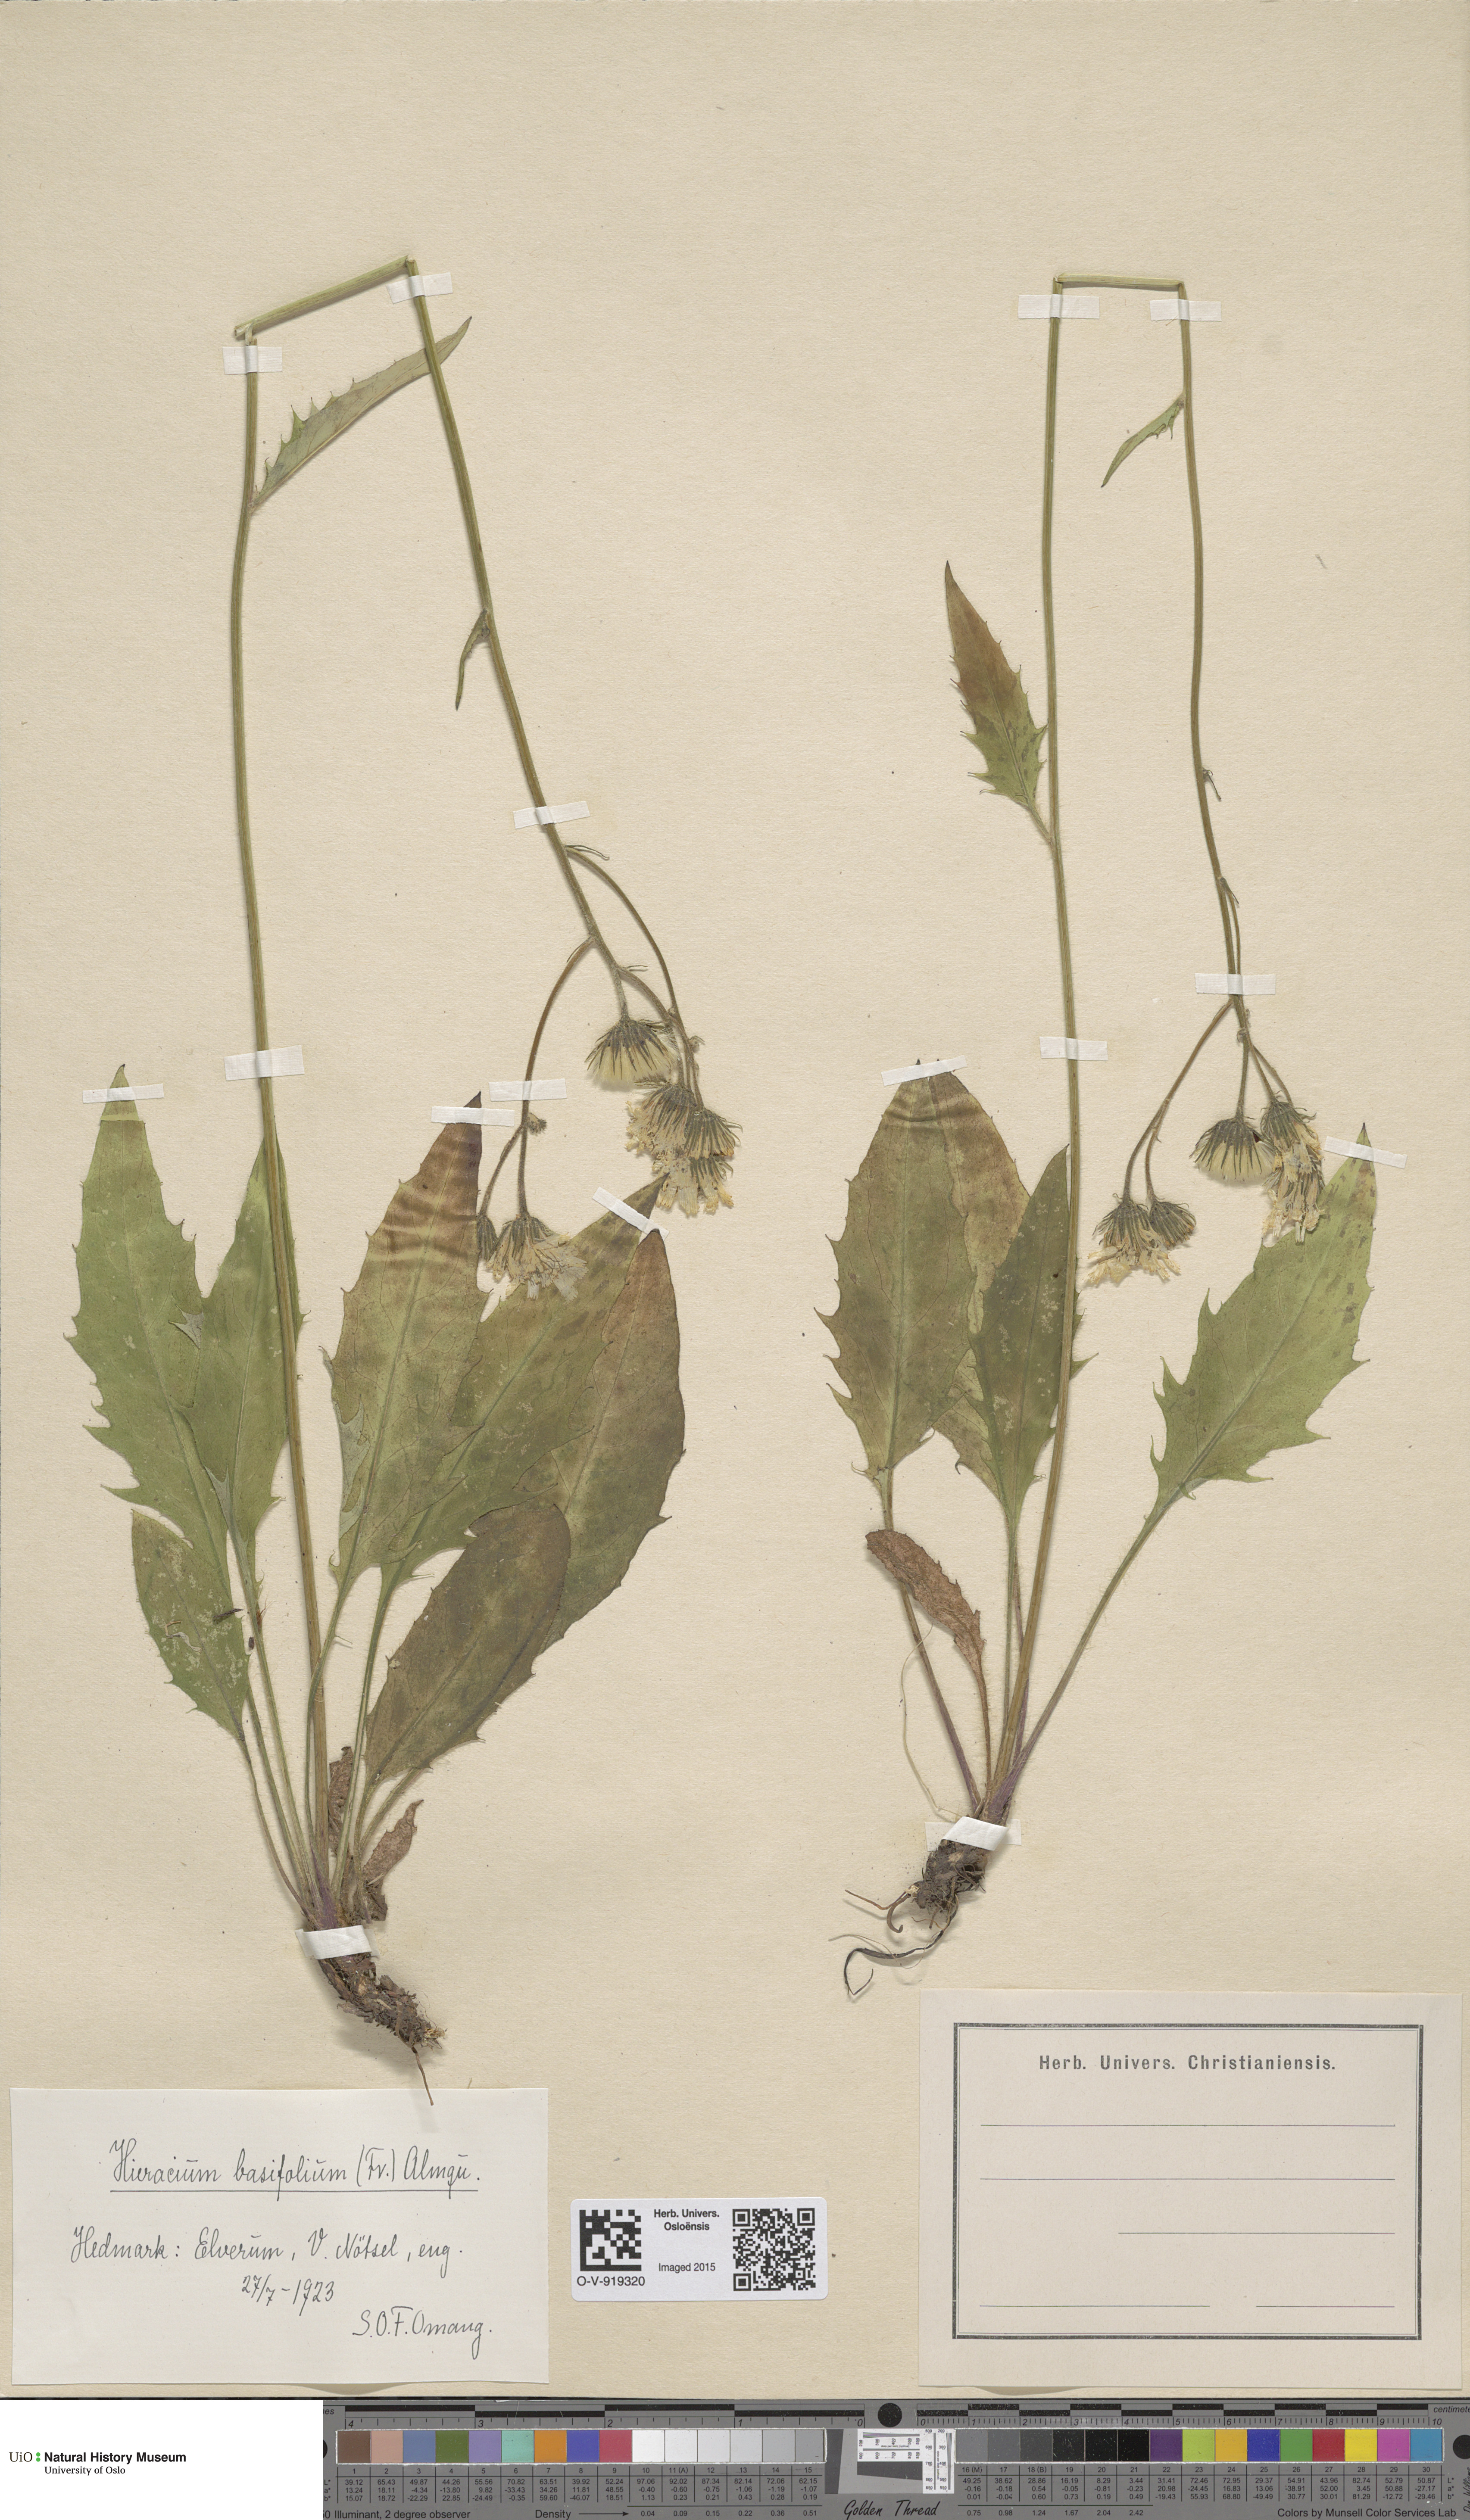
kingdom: Plantae
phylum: Tracheophyta
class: Magnoliopsida
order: Asterales
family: Asteraceae
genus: Hieracium
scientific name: Hieracium basifolium
